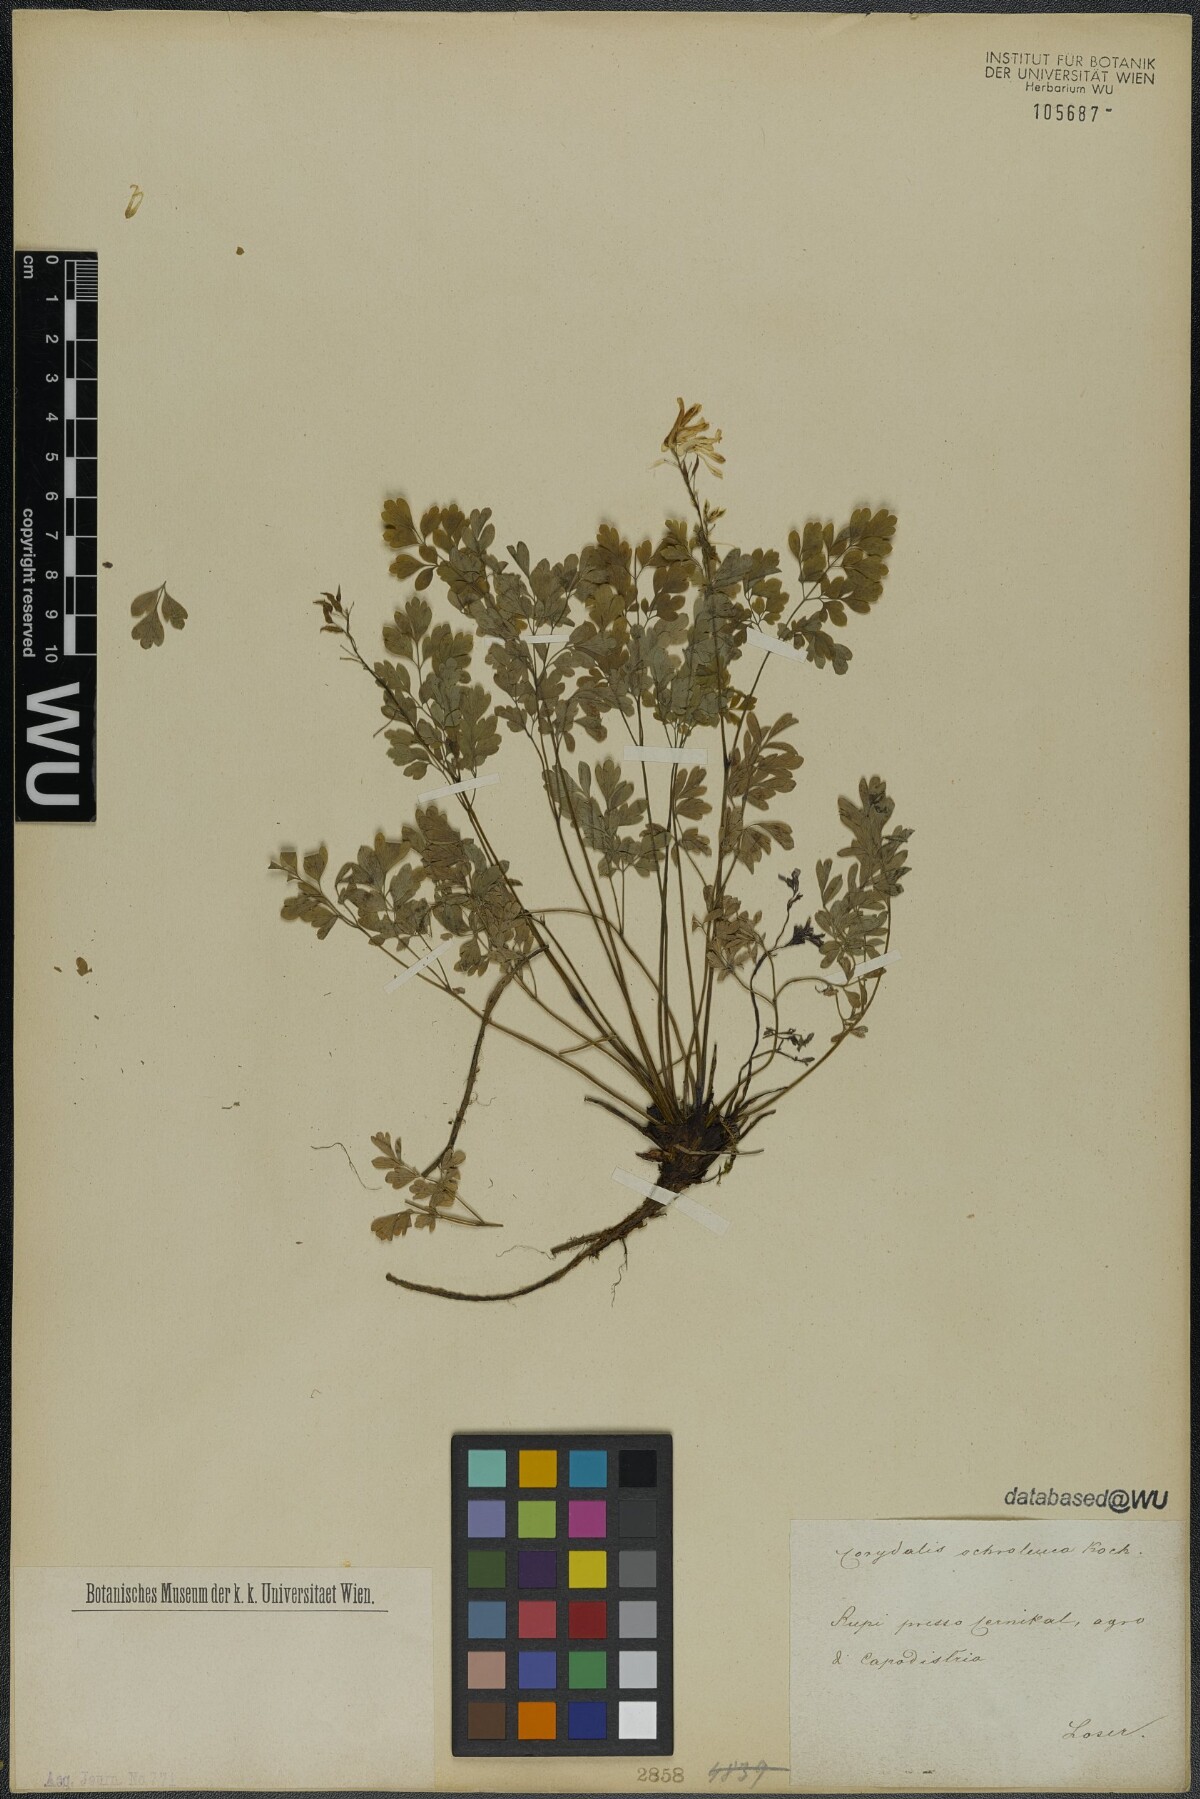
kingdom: Plantae
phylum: Tracheophyta
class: Magnoliopsida
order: Ranunculales
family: Papaveraceae
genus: Pseudofumaria
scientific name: Pseudofumaria alba
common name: Pale corydalis
